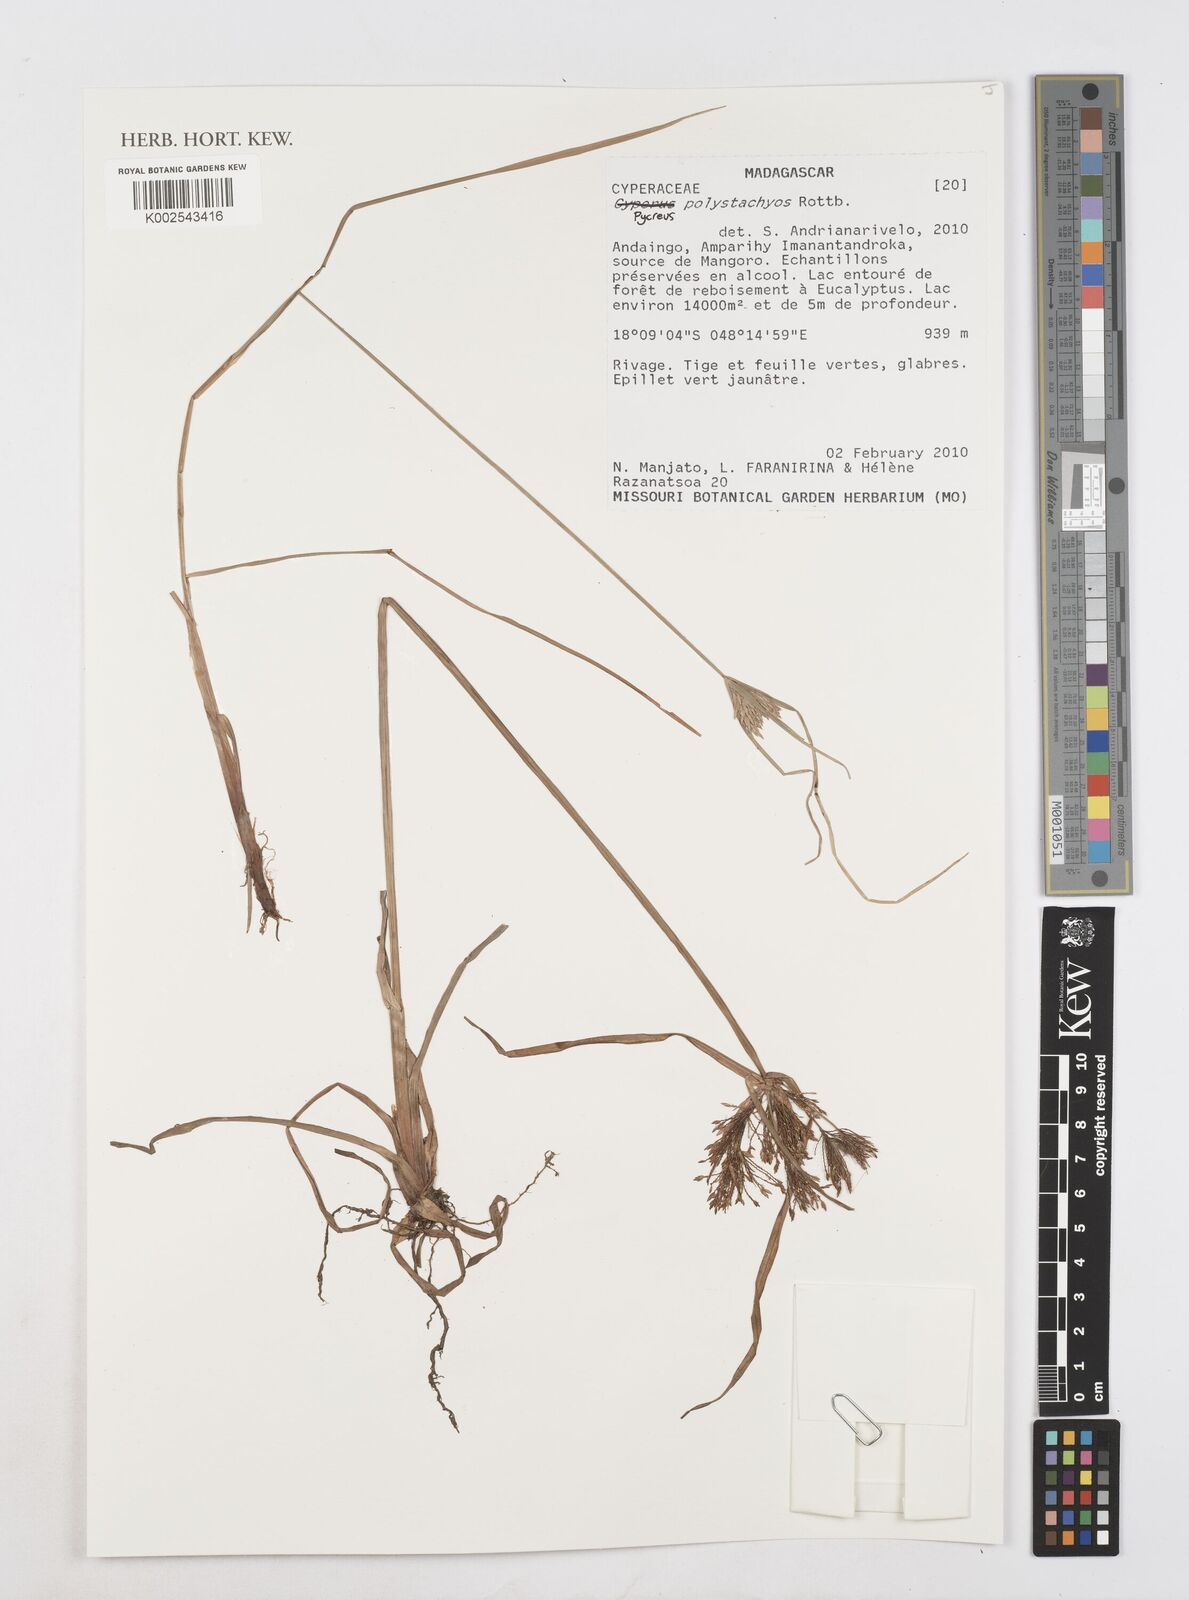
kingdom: Plantae
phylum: Tracheophyta
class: Liliopsida
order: Poales
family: Cyperaceae
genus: Cyperus
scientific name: Cyperus polystachyos
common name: Bunchy flat sedge
